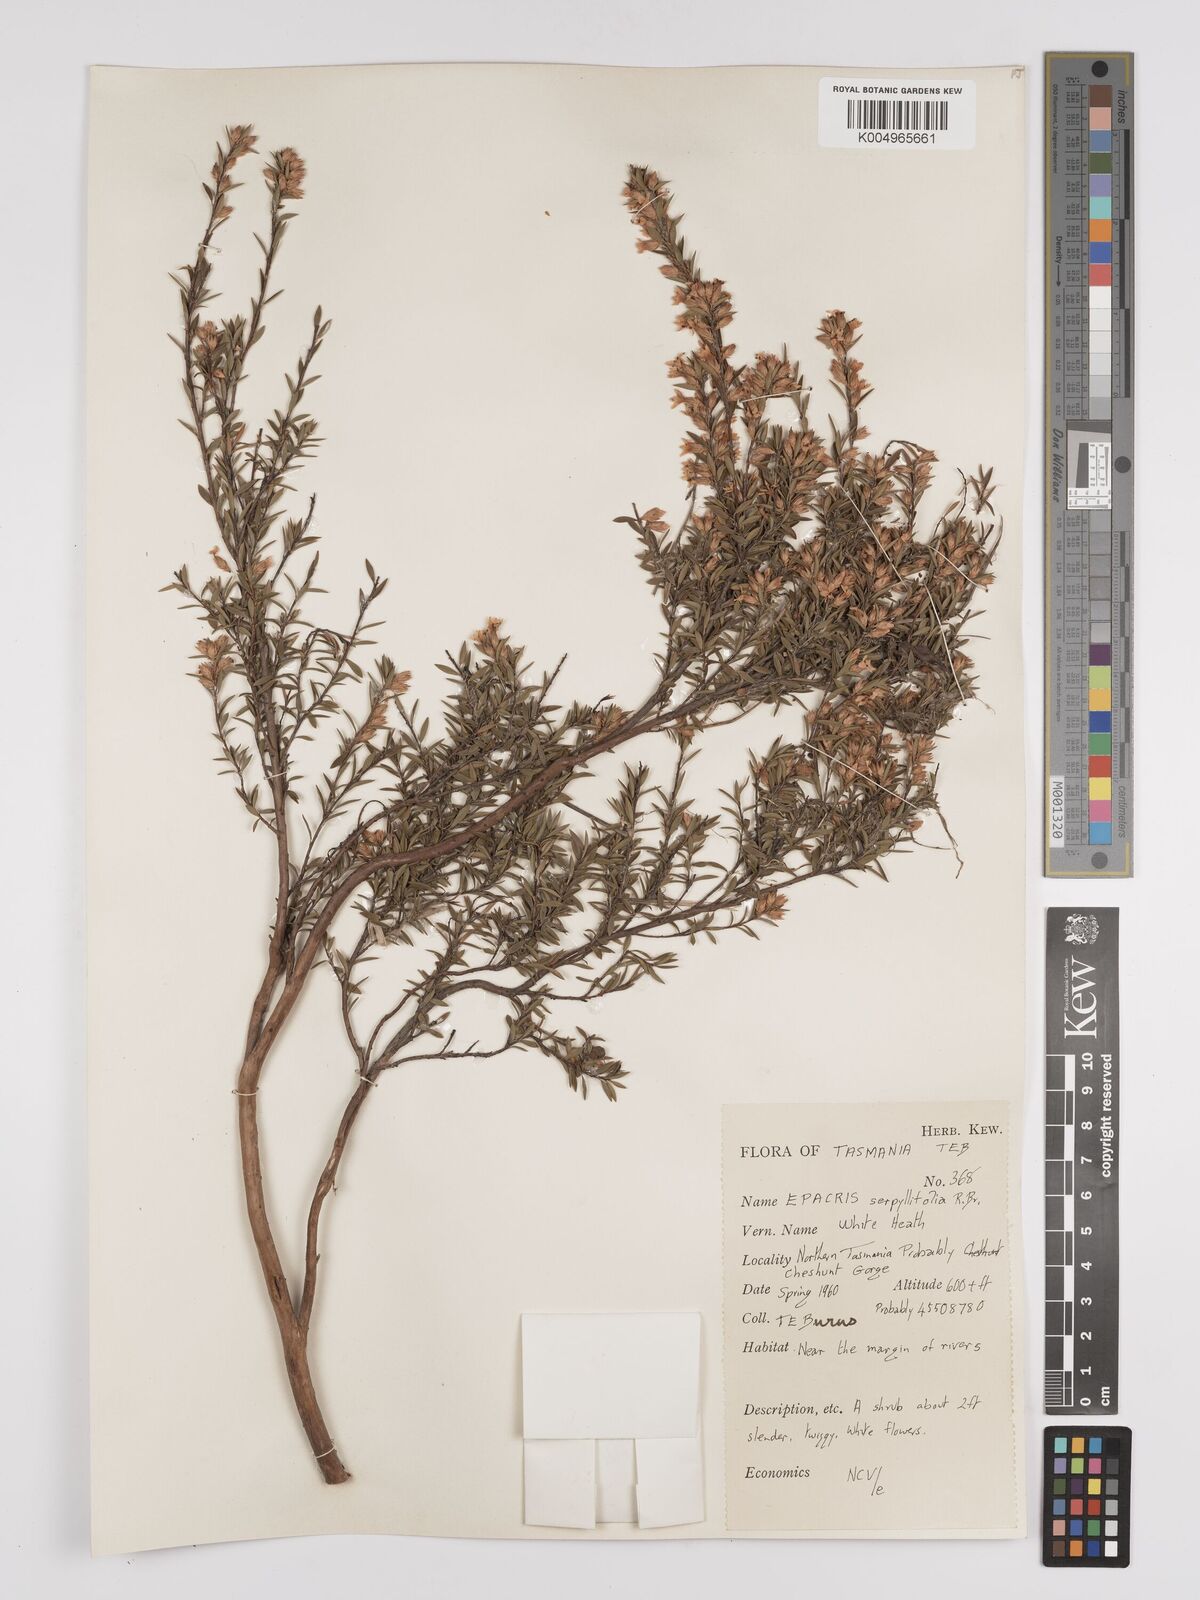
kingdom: Plantae
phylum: Tracheophyta
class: Magnoliopsida
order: Ericales
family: Ericaceae
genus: Epacris
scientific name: Epacris serpyllifolia
